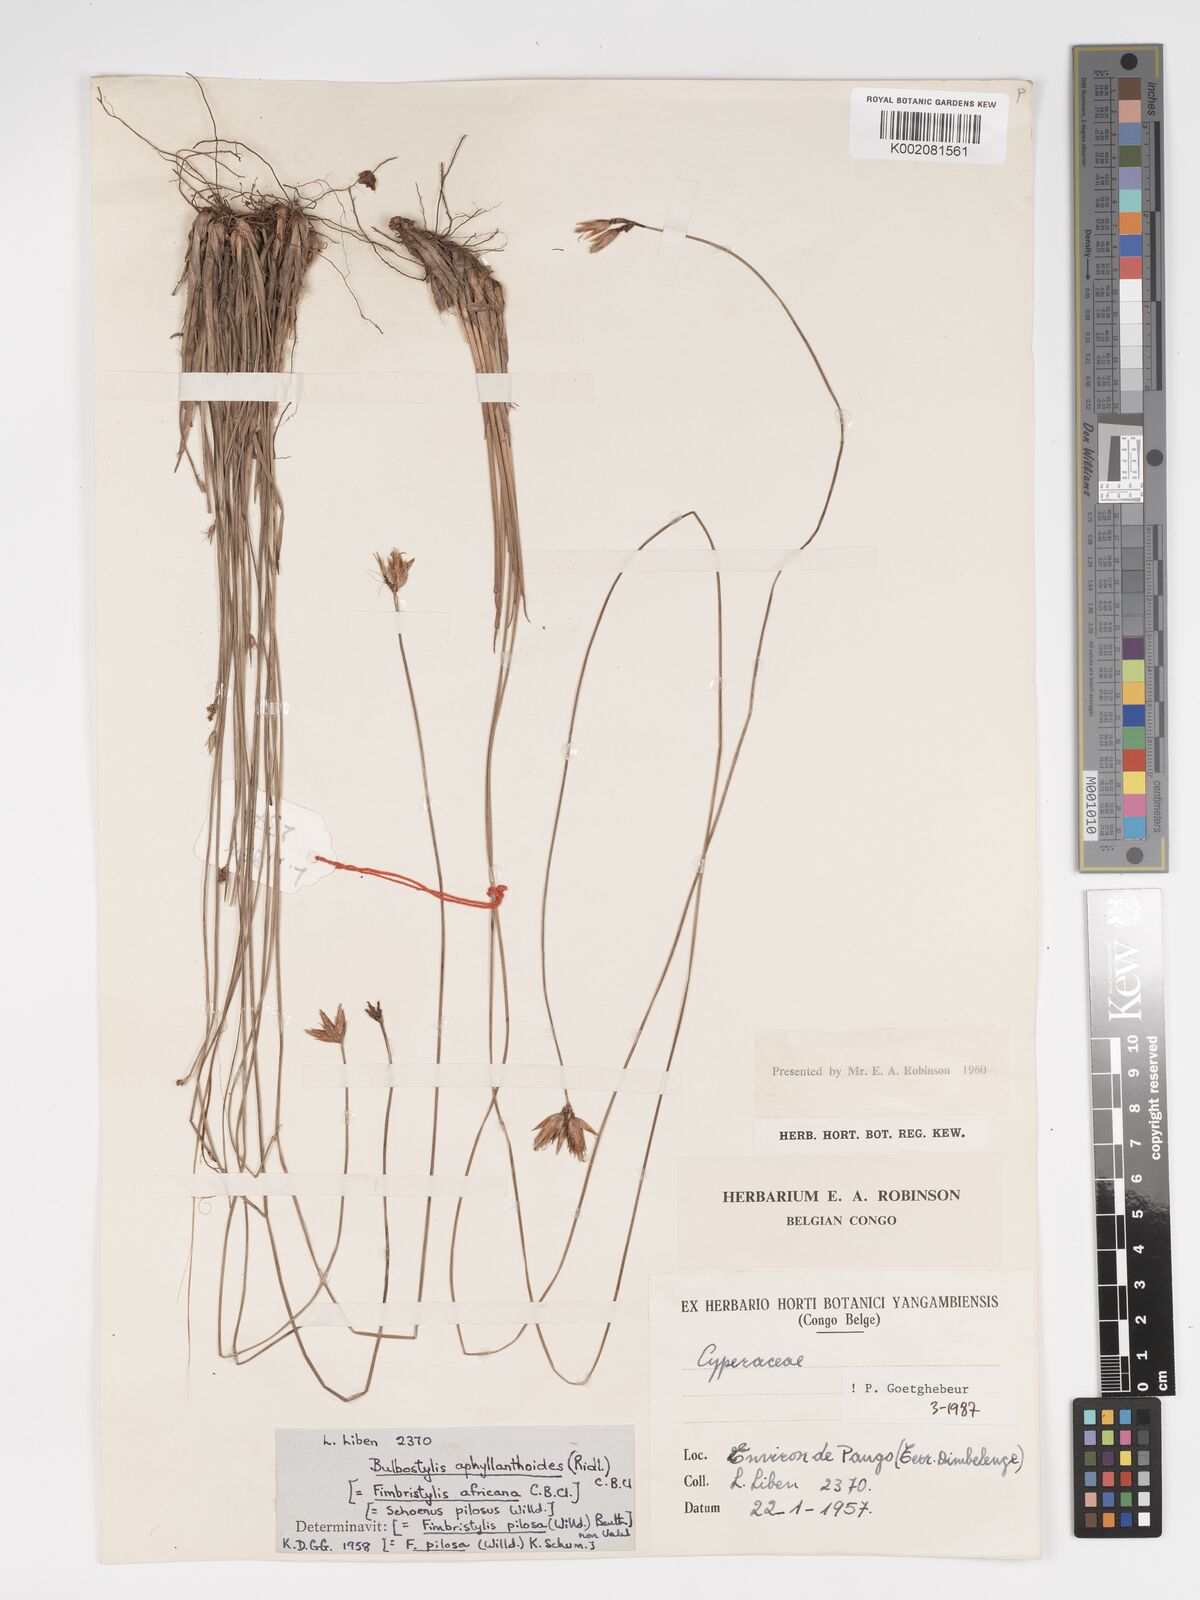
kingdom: Plantae
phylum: Tracheophyta
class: Liliopsida
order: Poales
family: Cyperaceae
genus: Bulbostylis
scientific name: Bulbostylis pilosa
